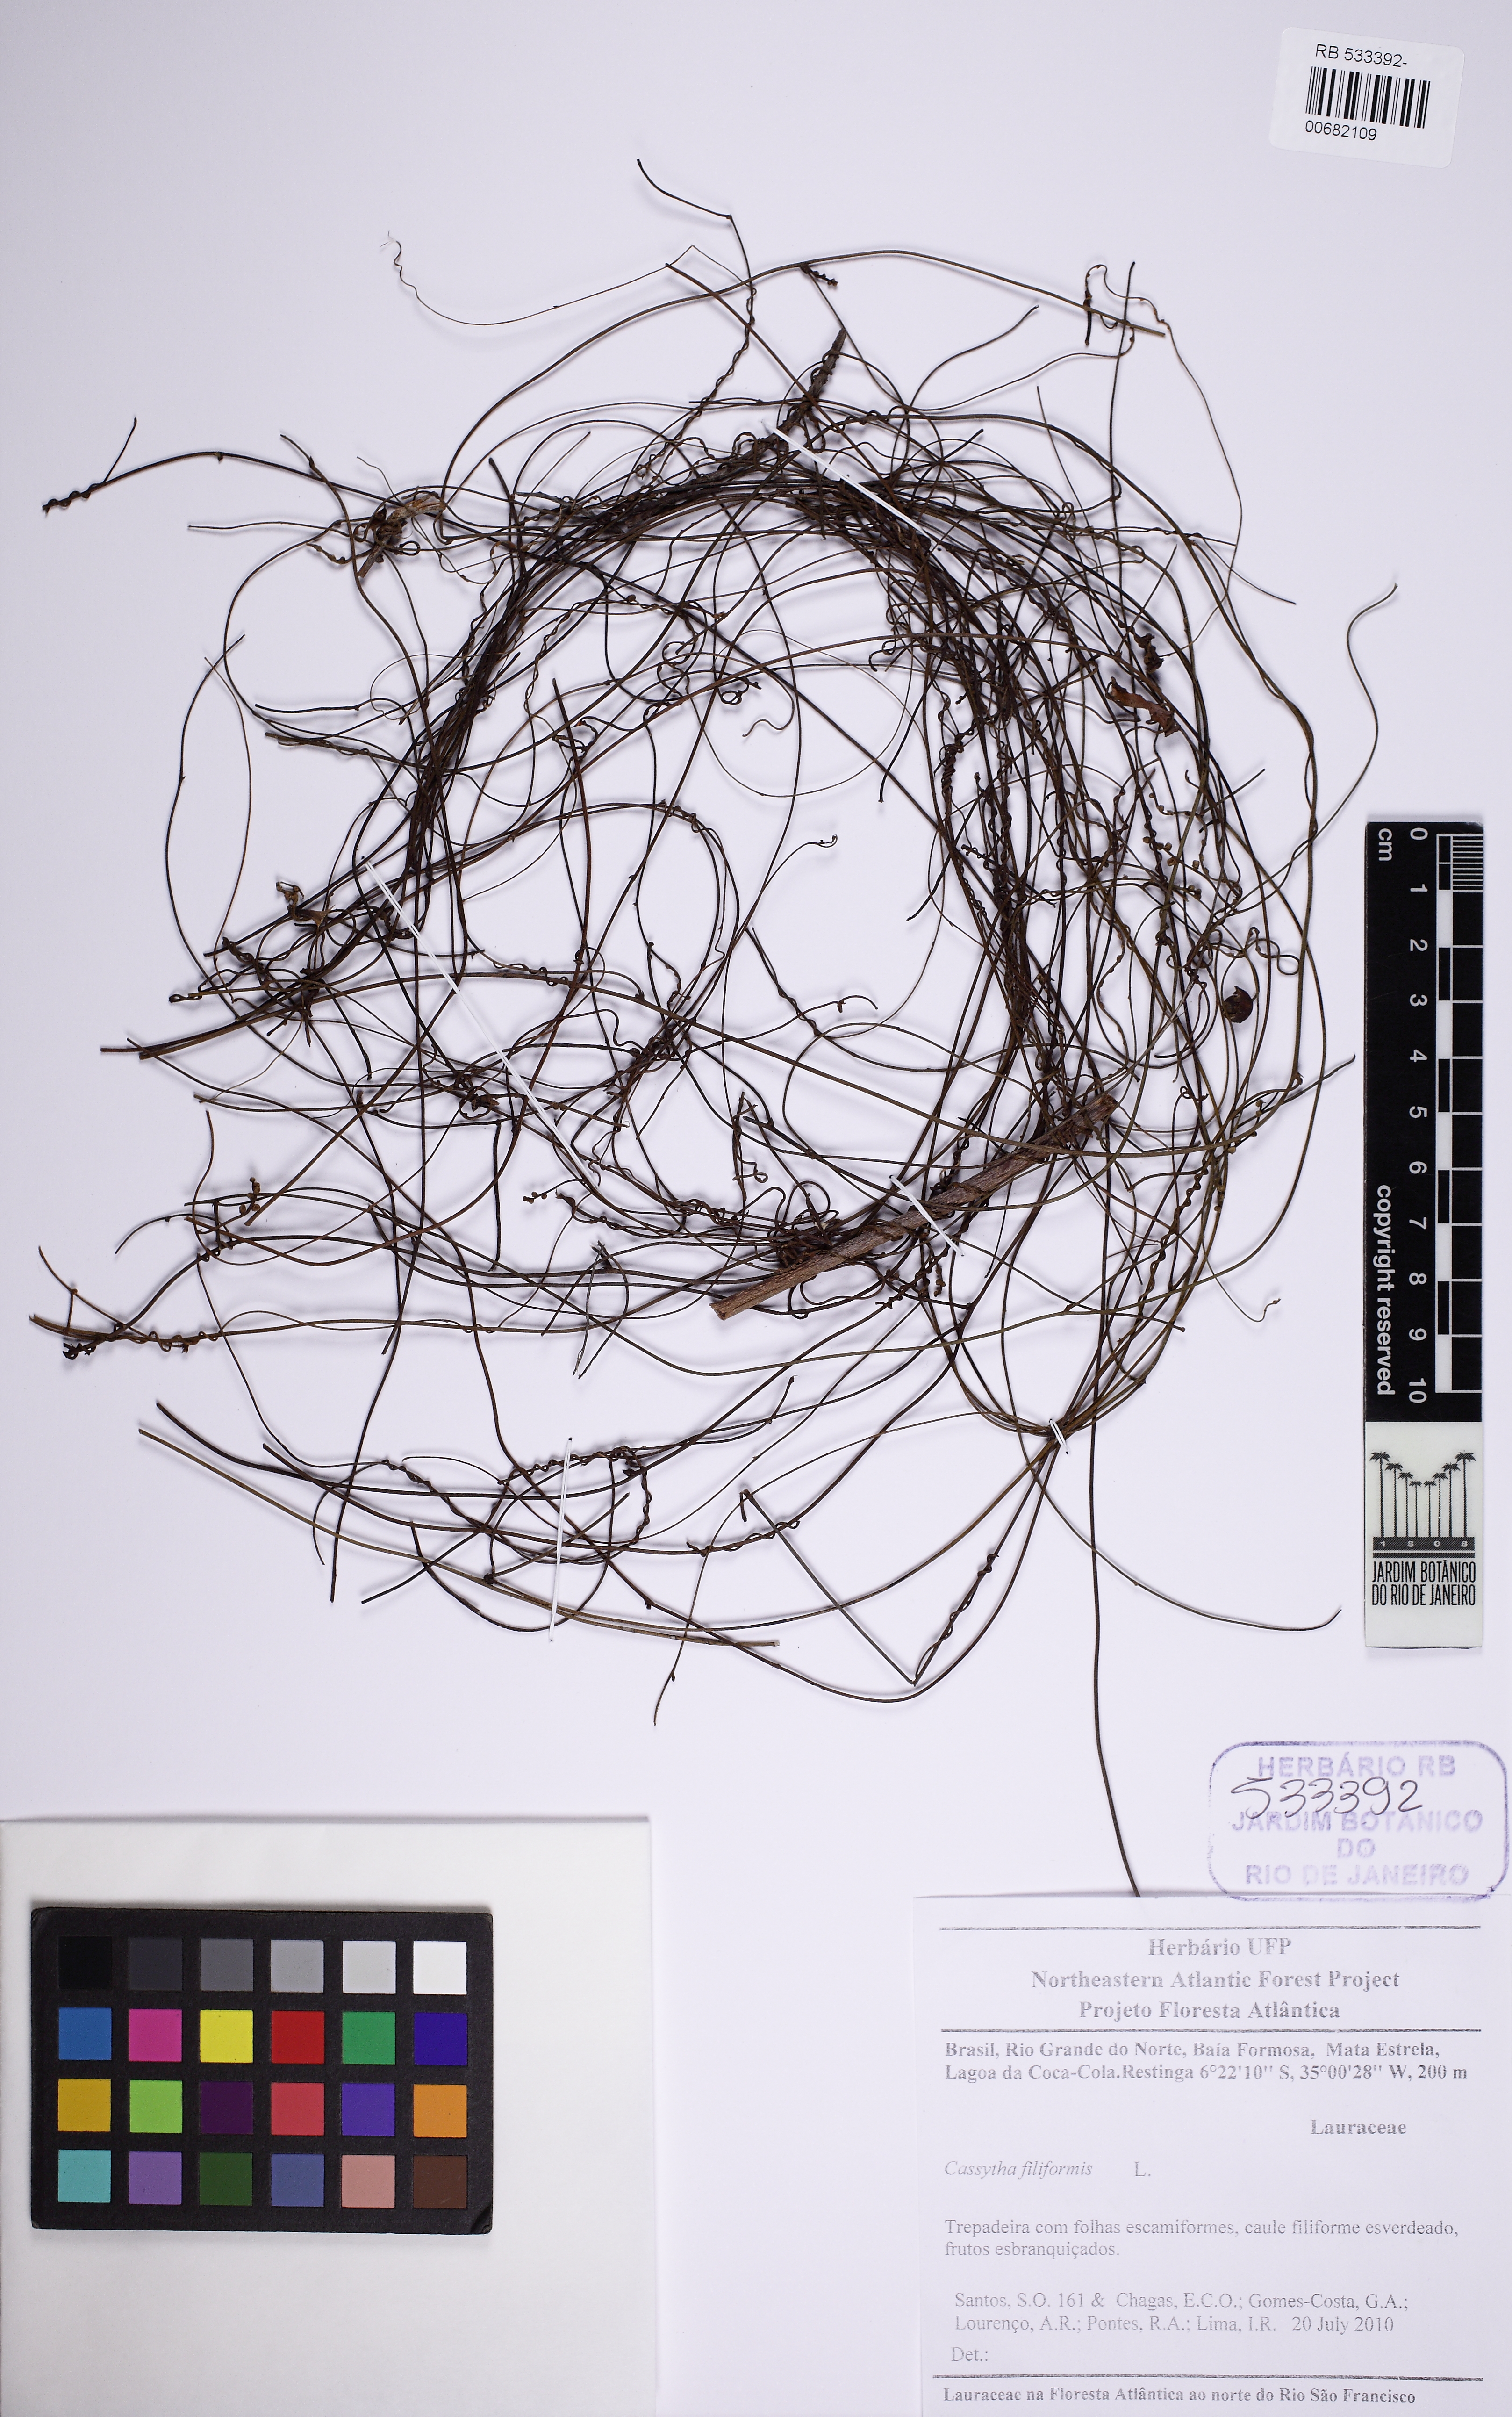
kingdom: Plantae
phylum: Tracheophyta
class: Magnoliopsida
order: Laurales
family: Lauraceae
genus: Cassytha
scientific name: Cassytha filiformis
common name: Dodder-laurel
